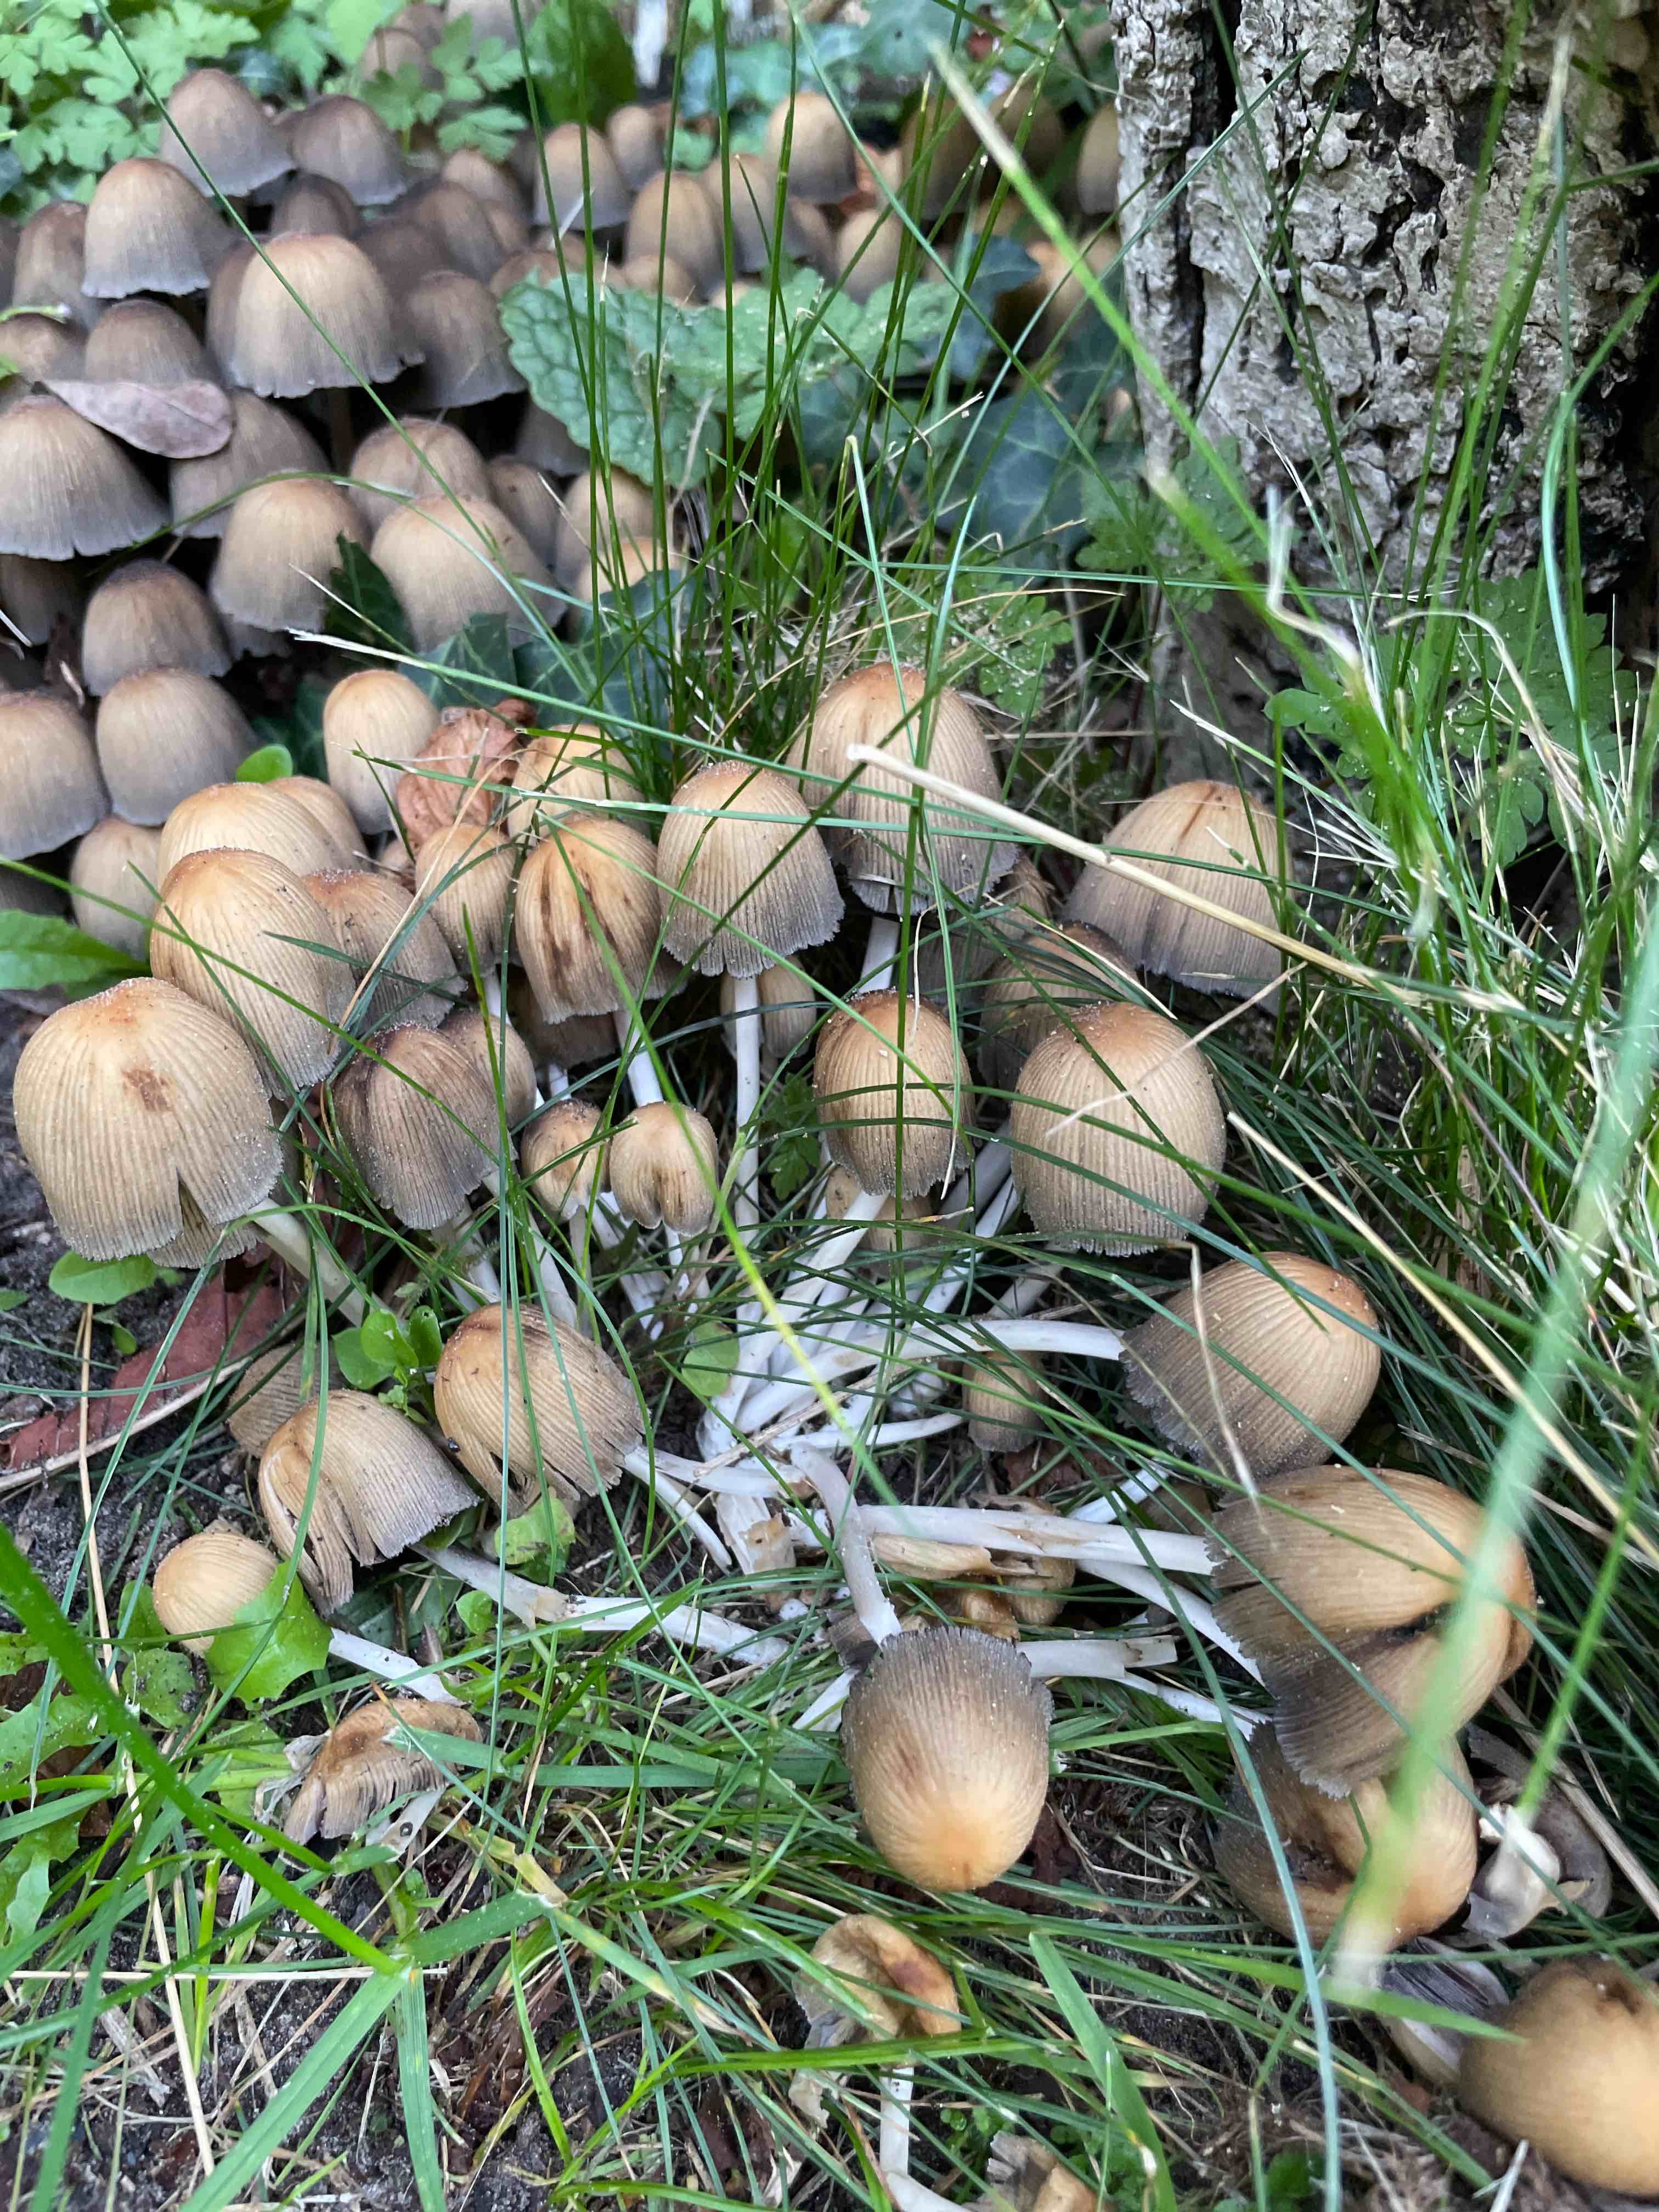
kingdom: Fungi
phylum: Basidiomycota
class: Agaricomycetes
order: Agaricales
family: Psathyrellaceae
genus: Coprinellus
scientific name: Coprinellus micaceus
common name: glimmer-blækhat
